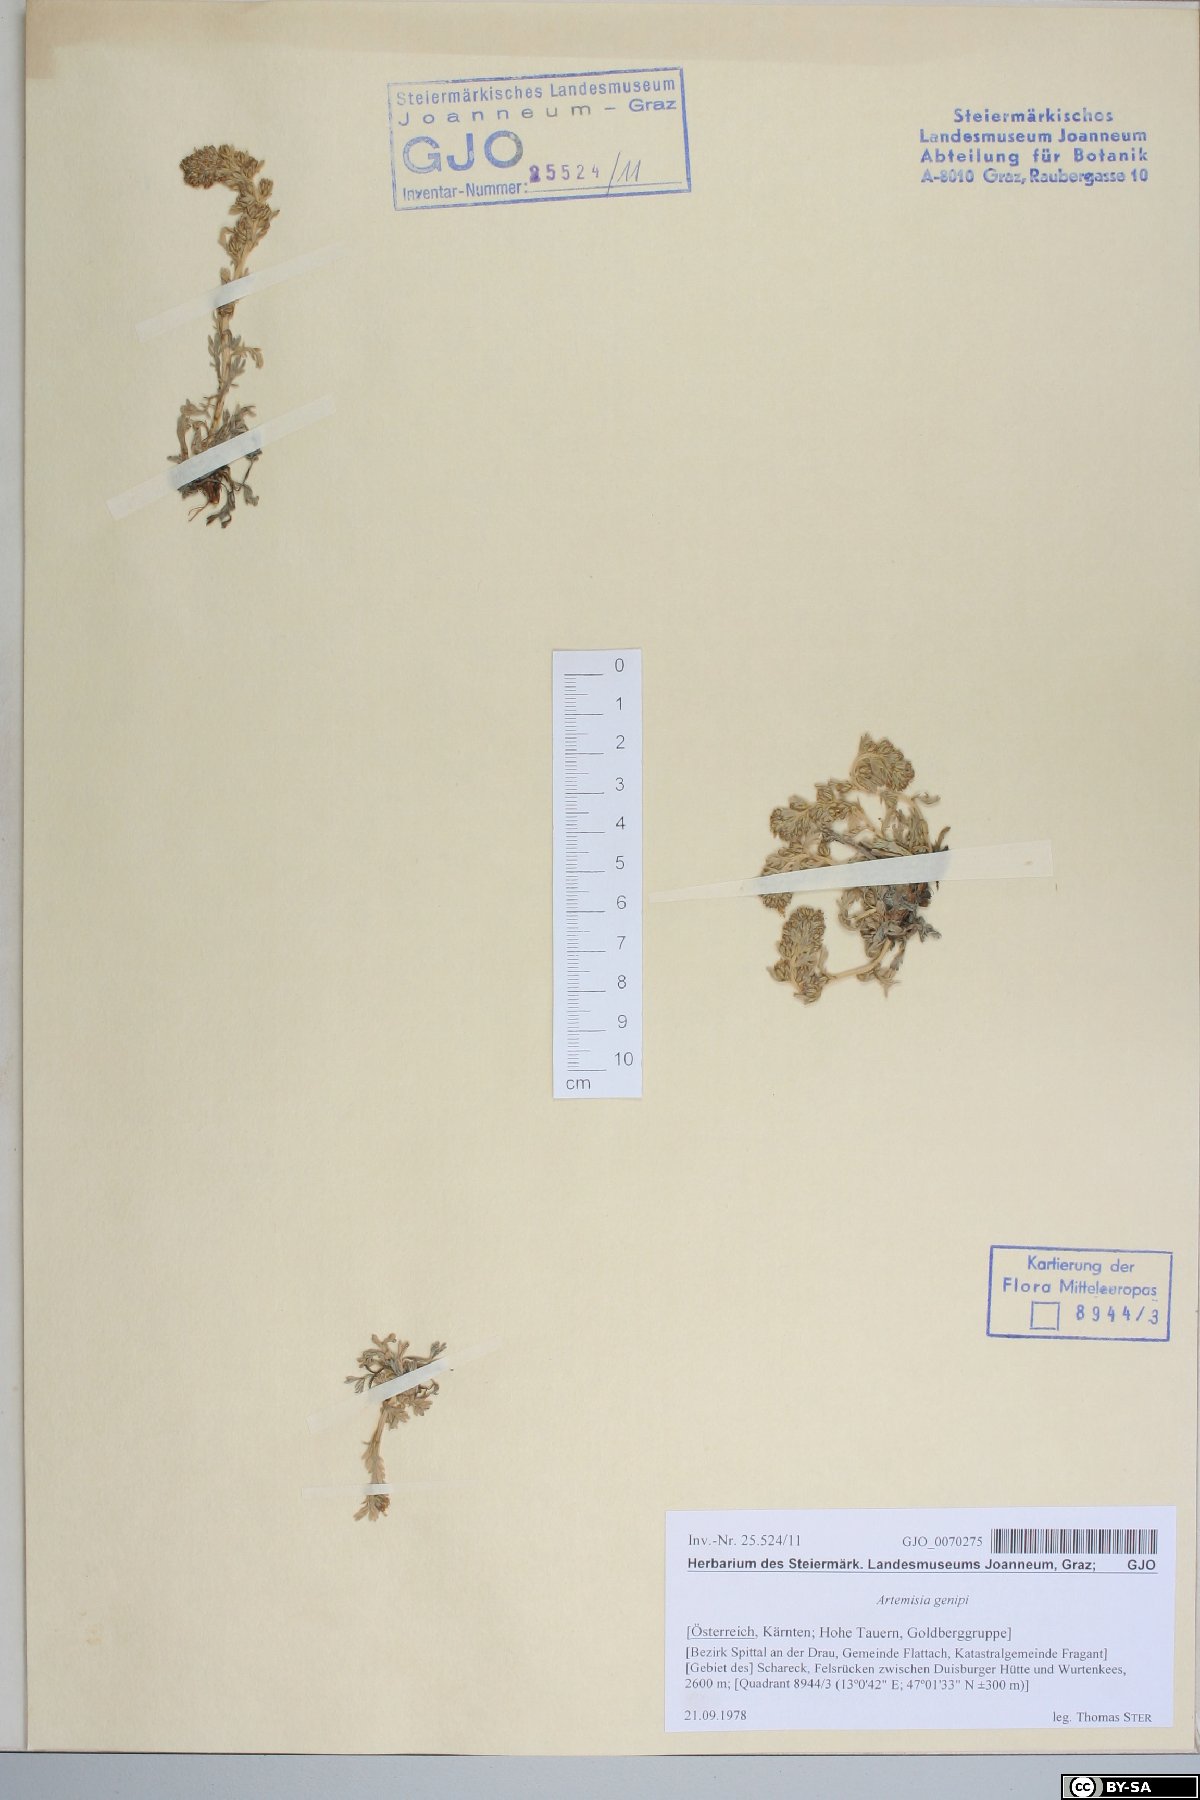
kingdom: Plantae
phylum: Tracheophyta
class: Magnoliopsida
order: Asterales
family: Asteraceae
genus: Artemisia
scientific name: Artemisia genipi
